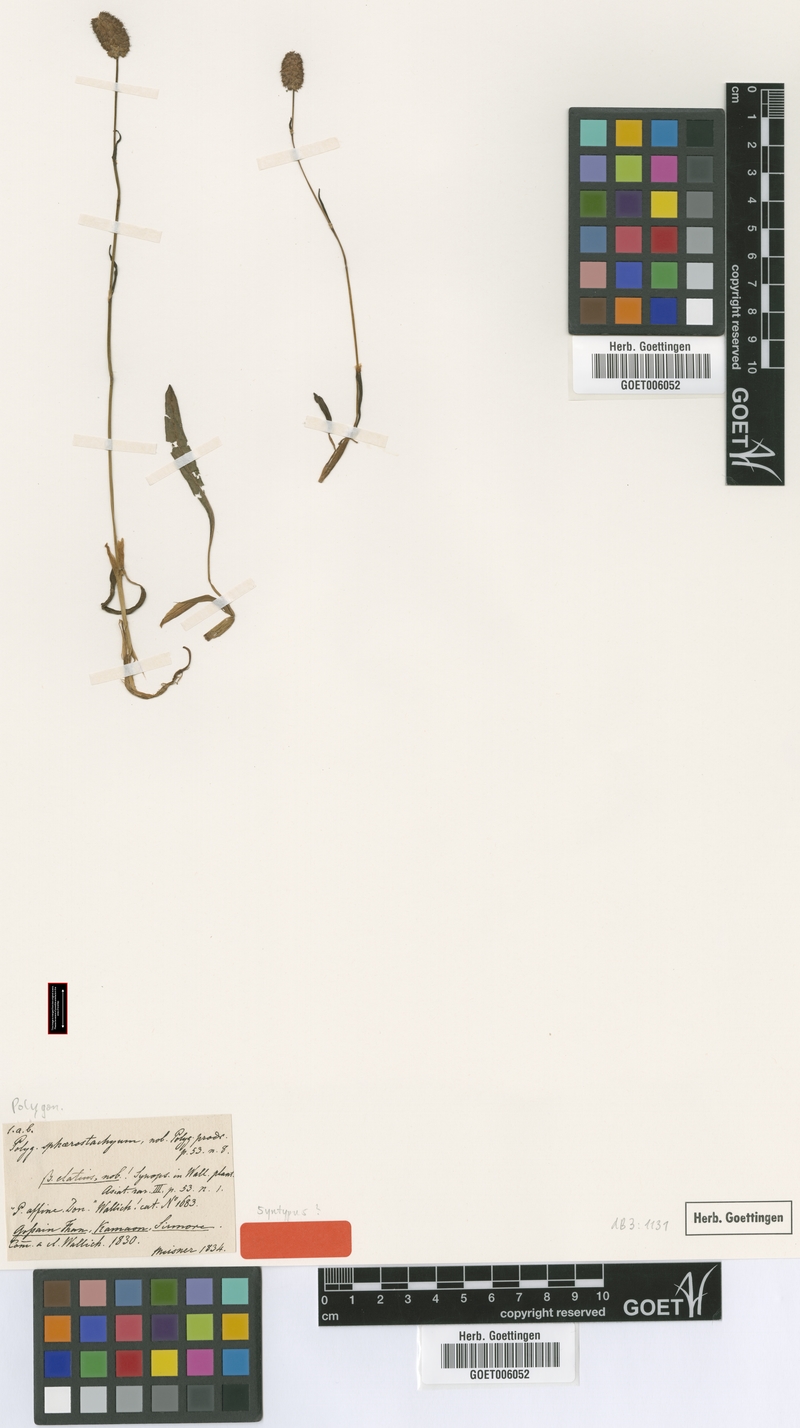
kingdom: Plantae
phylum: Tracheophyta
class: Magnoliopsida
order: Caryophyllales
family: Polygonaceae
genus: Bistorta
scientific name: Bistorta macrophylla
